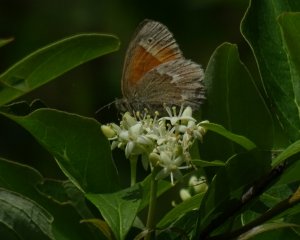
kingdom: Animalia
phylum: Arthropoda
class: Insecta
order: Lepidoptera
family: Nymphalidae
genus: Coenonympha
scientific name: Coenonympha tullia
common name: Large Heath
